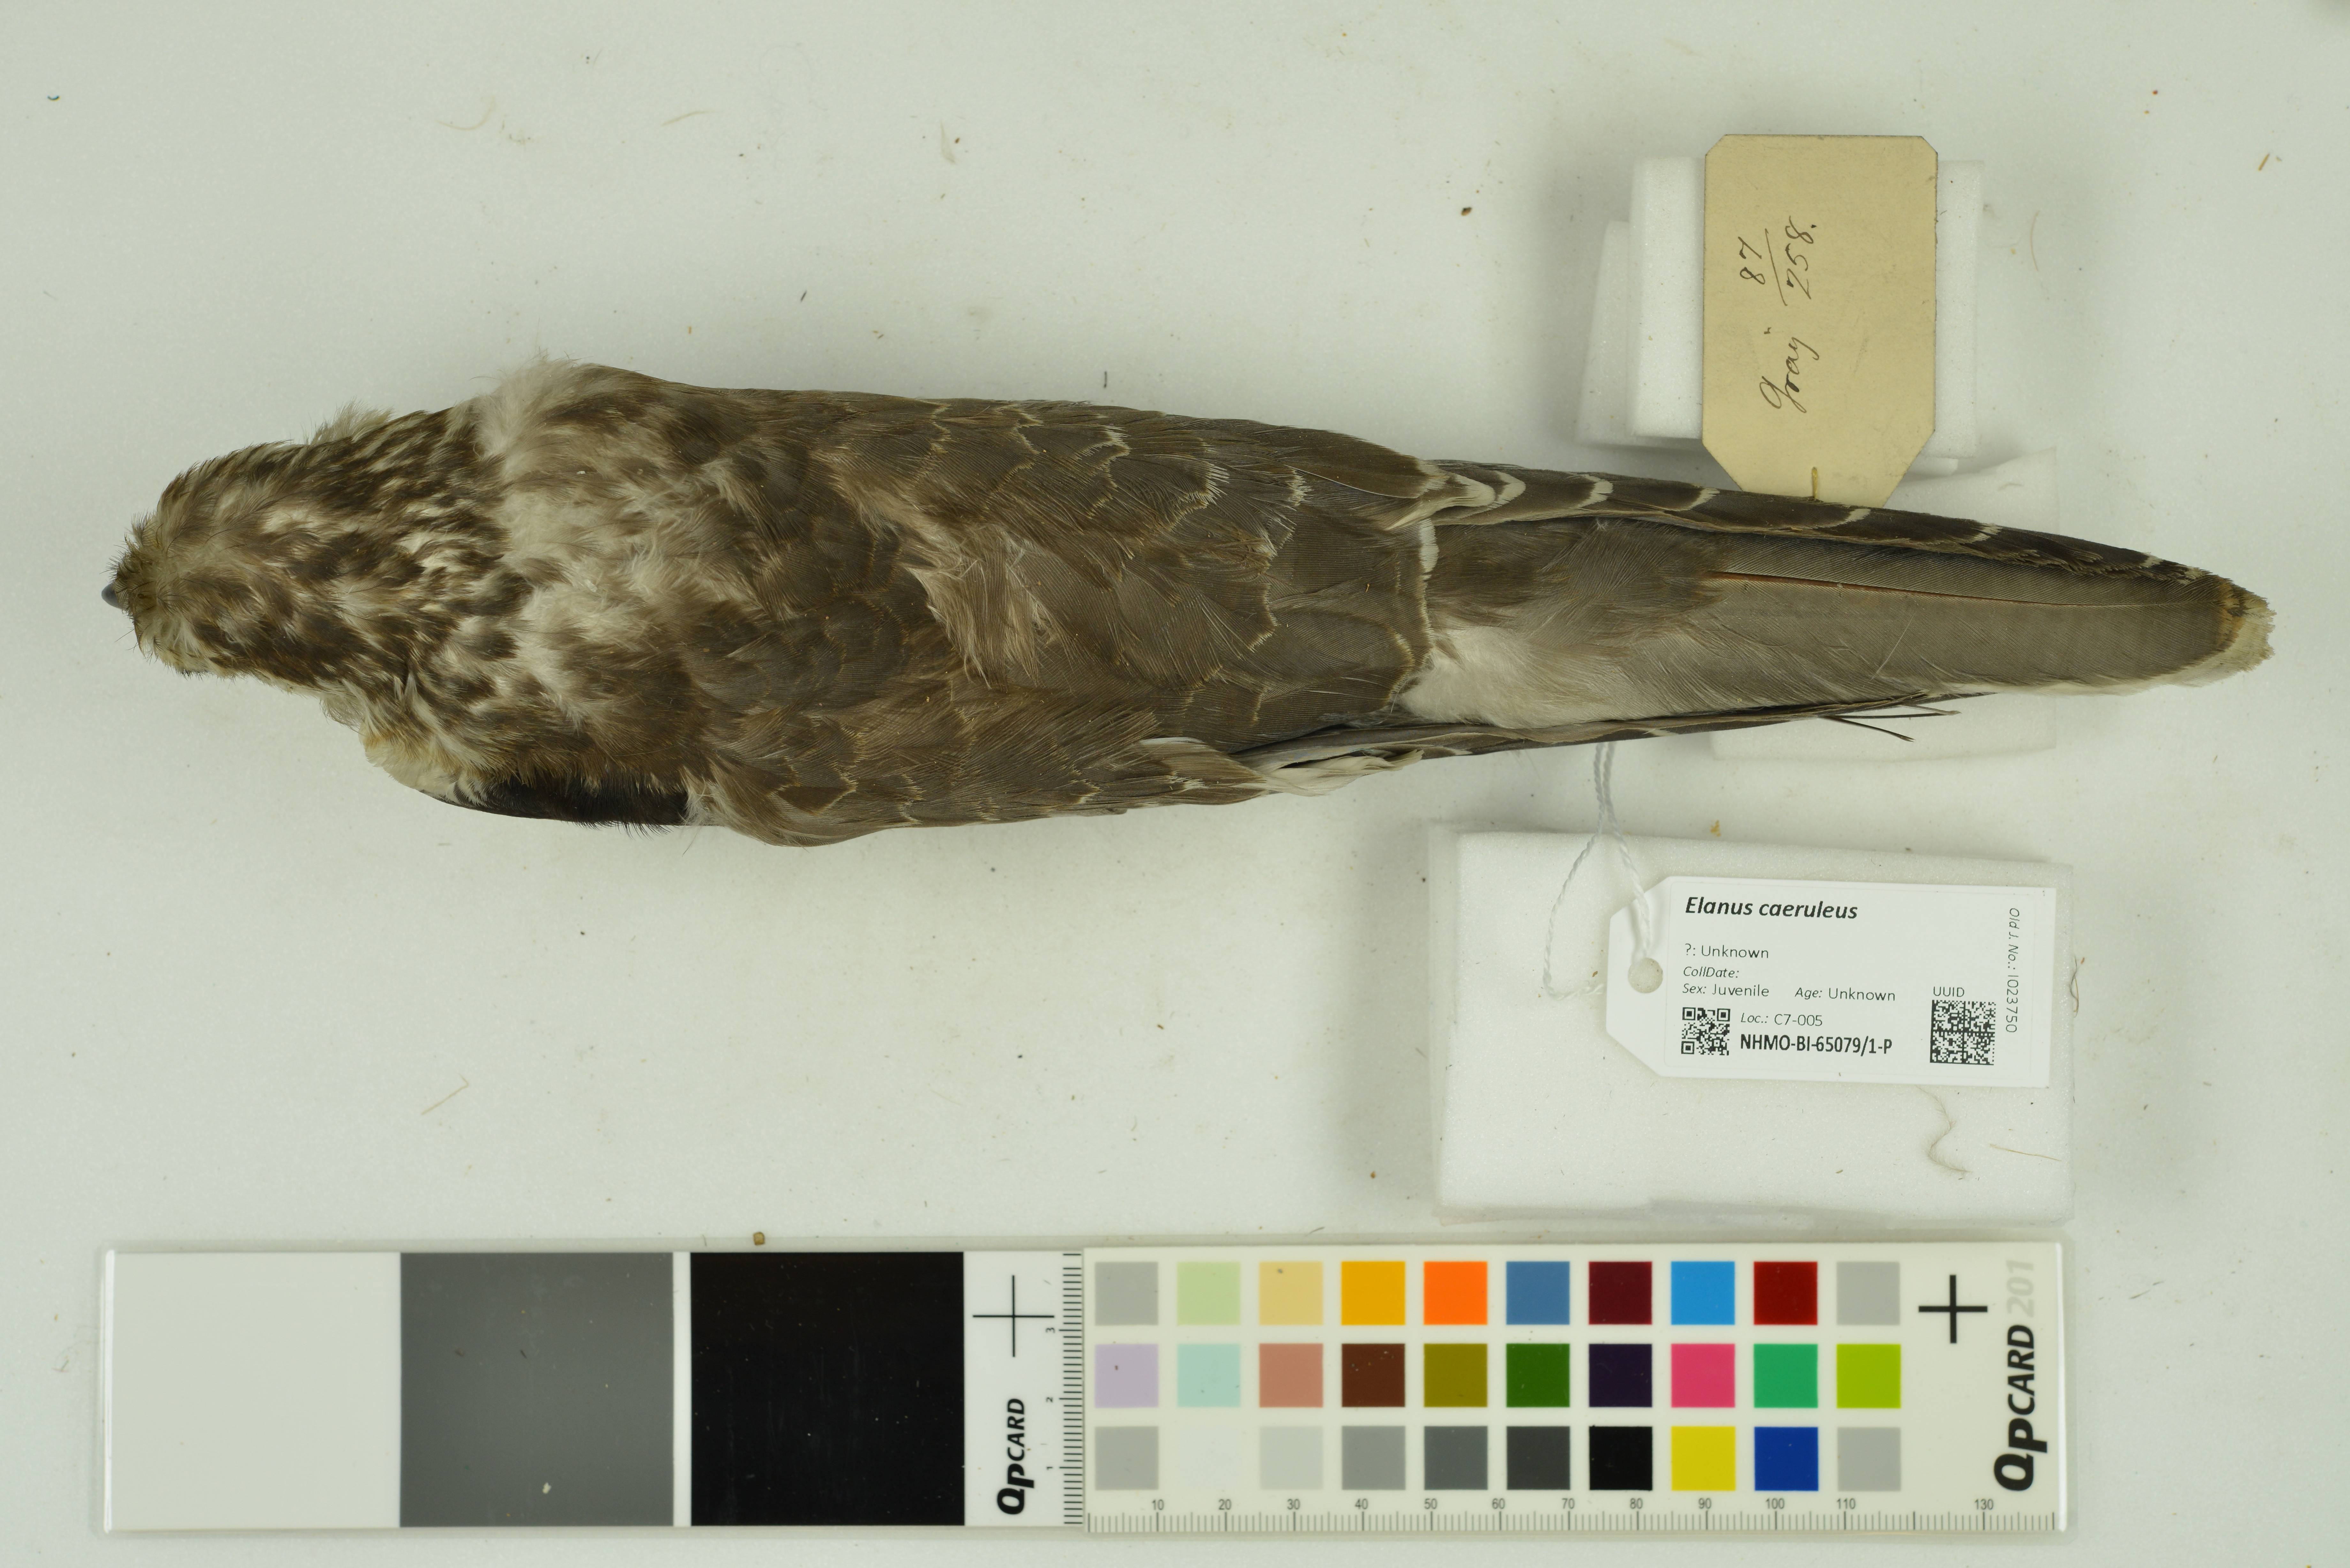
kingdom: Animalia
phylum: Chordata
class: Aves
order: Accipitriformes
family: Accipitridae
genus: Elanus
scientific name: Elanus caeruleus
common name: Black-winged kite
